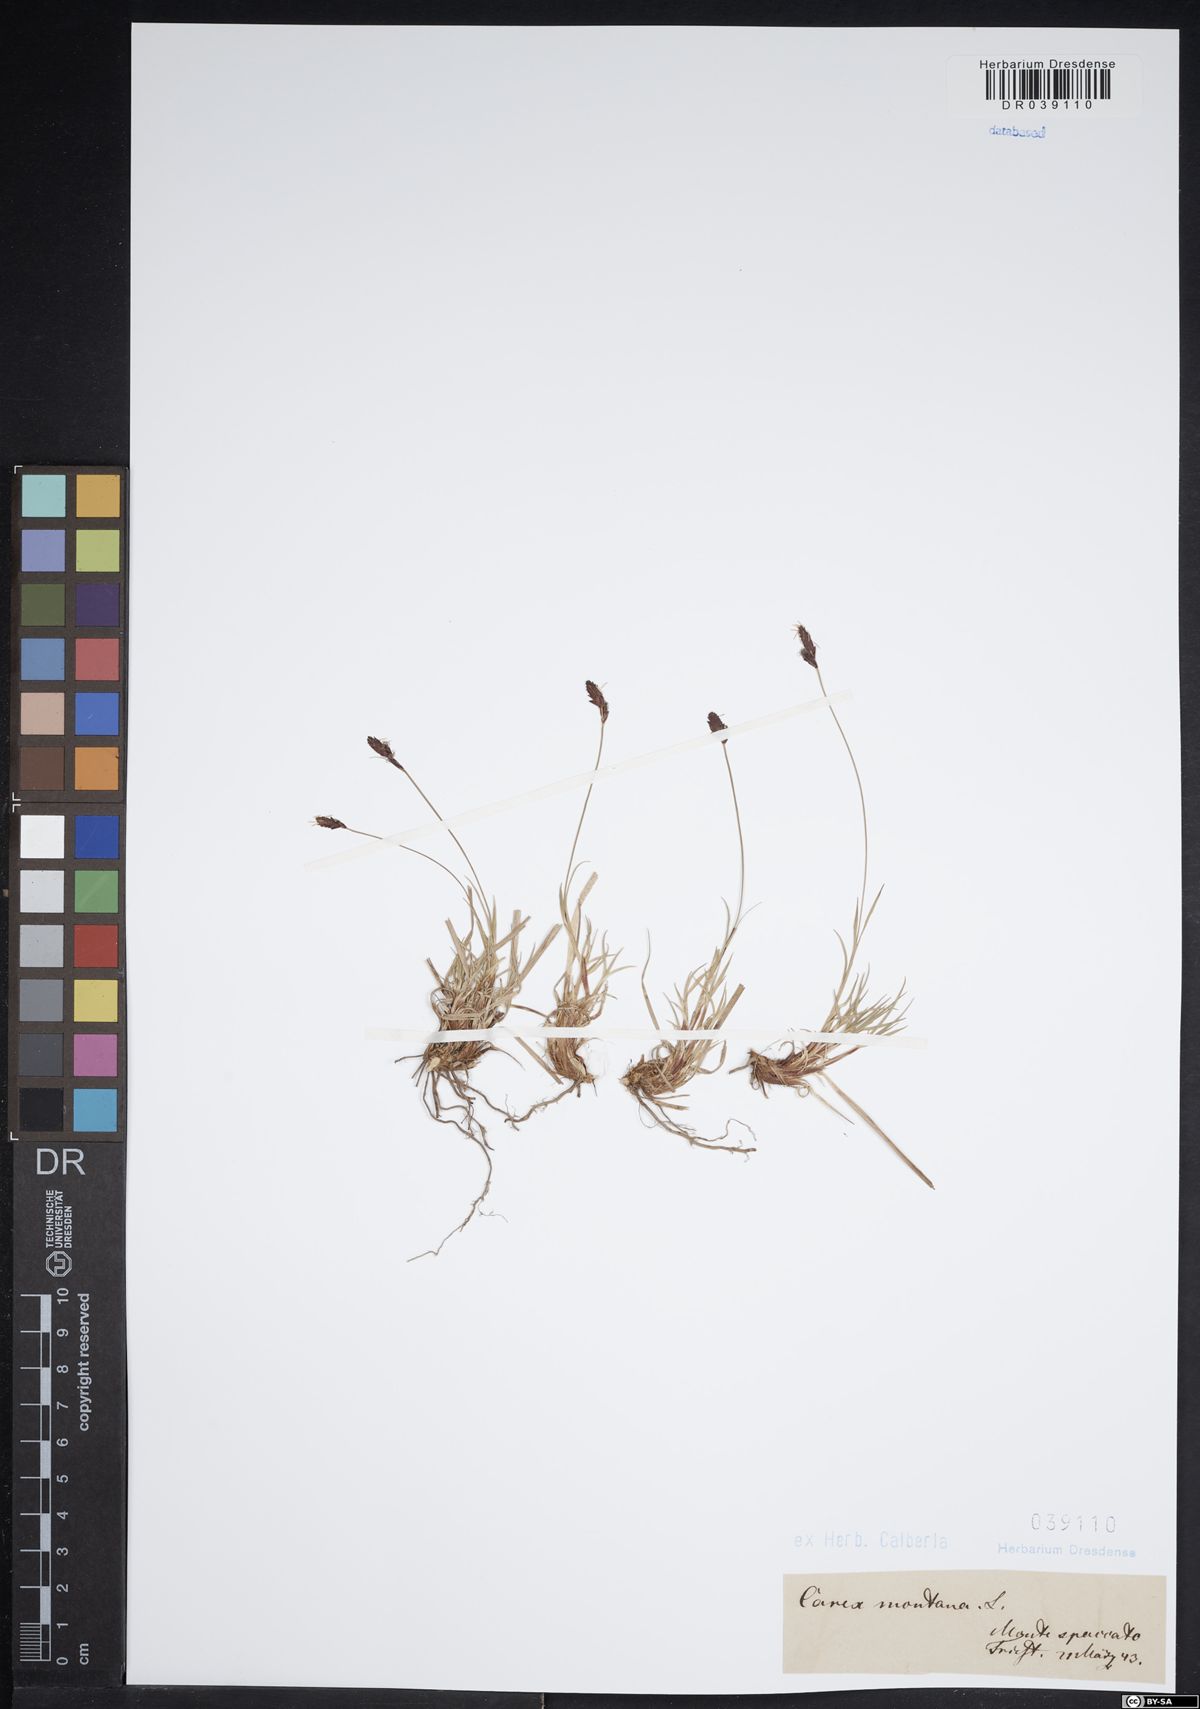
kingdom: Plantae
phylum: Tracheophyta
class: Liliopsida
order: Poales
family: Cyperaceae
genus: Carex
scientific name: Carex montana
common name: Soft-leaved sedge
